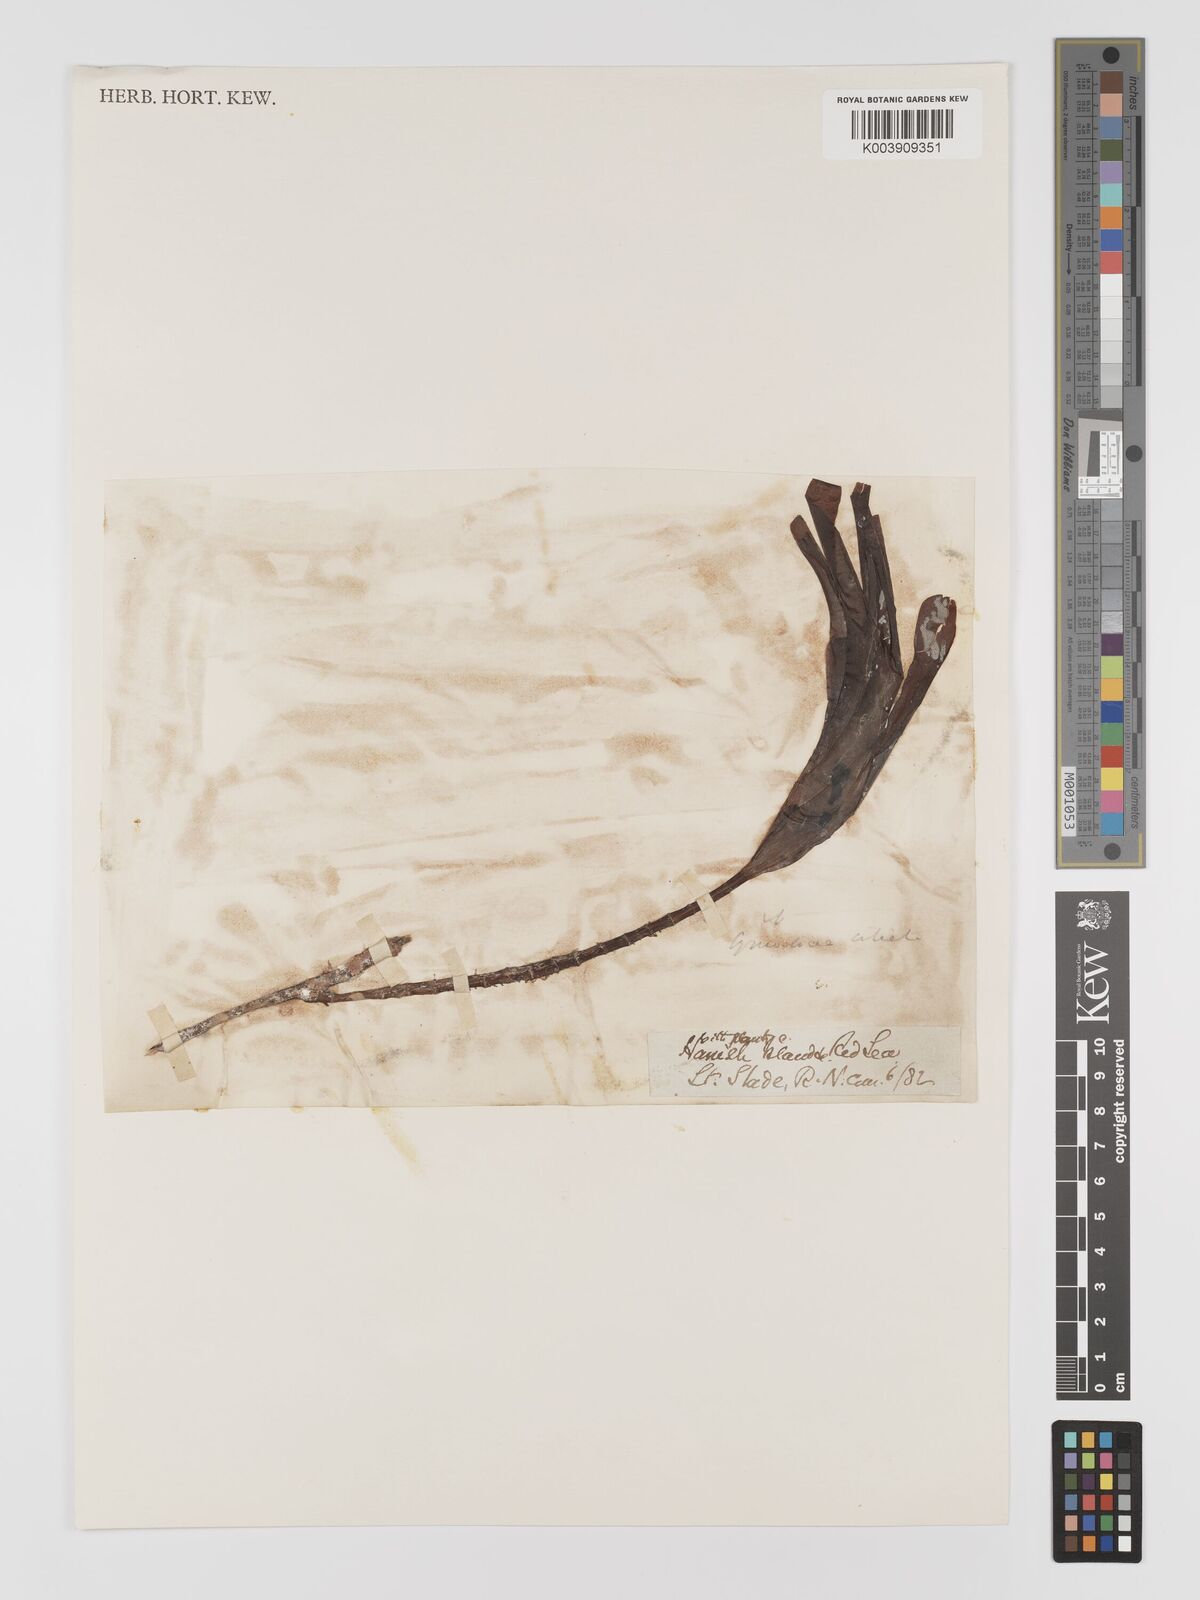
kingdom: Plantae
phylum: Tracheophyta
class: Liliopsida
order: Alismatales
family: Cymodoceaceae
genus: Oceana
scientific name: Oceana serrulata
